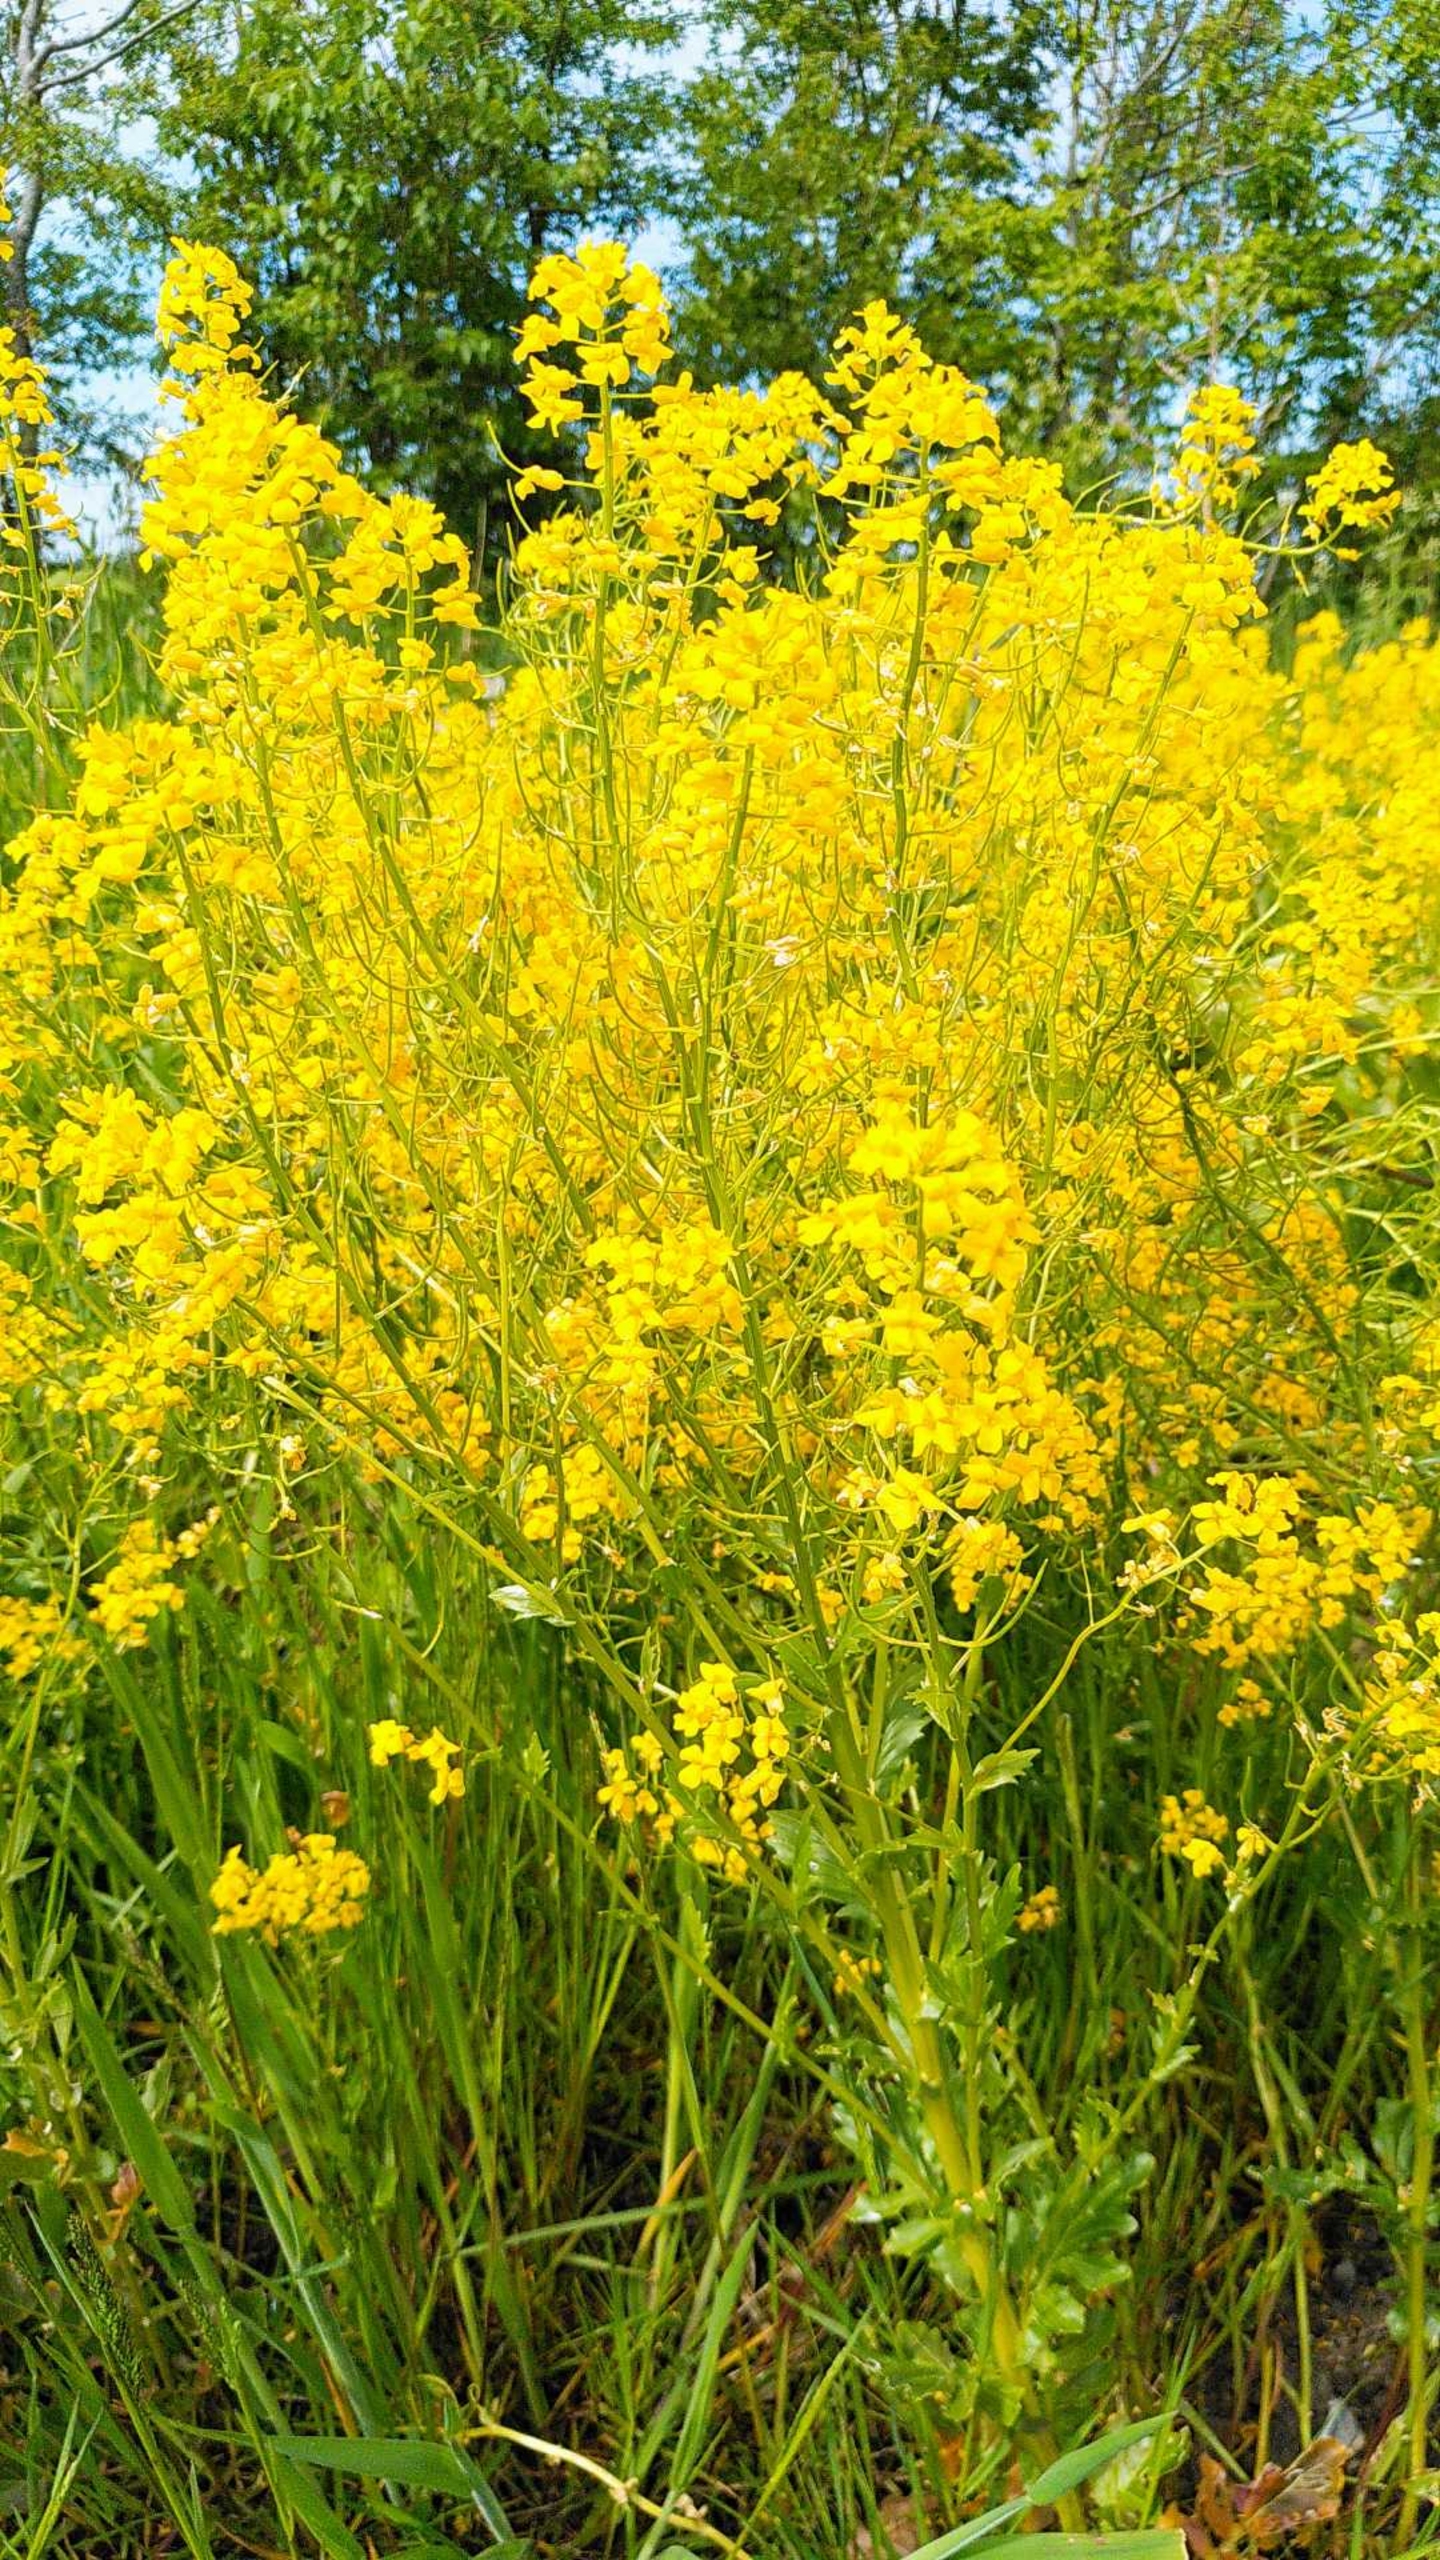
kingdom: Plantae
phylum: Tracheophyta
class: Magnoliopsida
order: Brassicales
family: Brassicaceae
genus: Barbarea
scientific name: Barbarea
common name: Vinterkarseslægten
